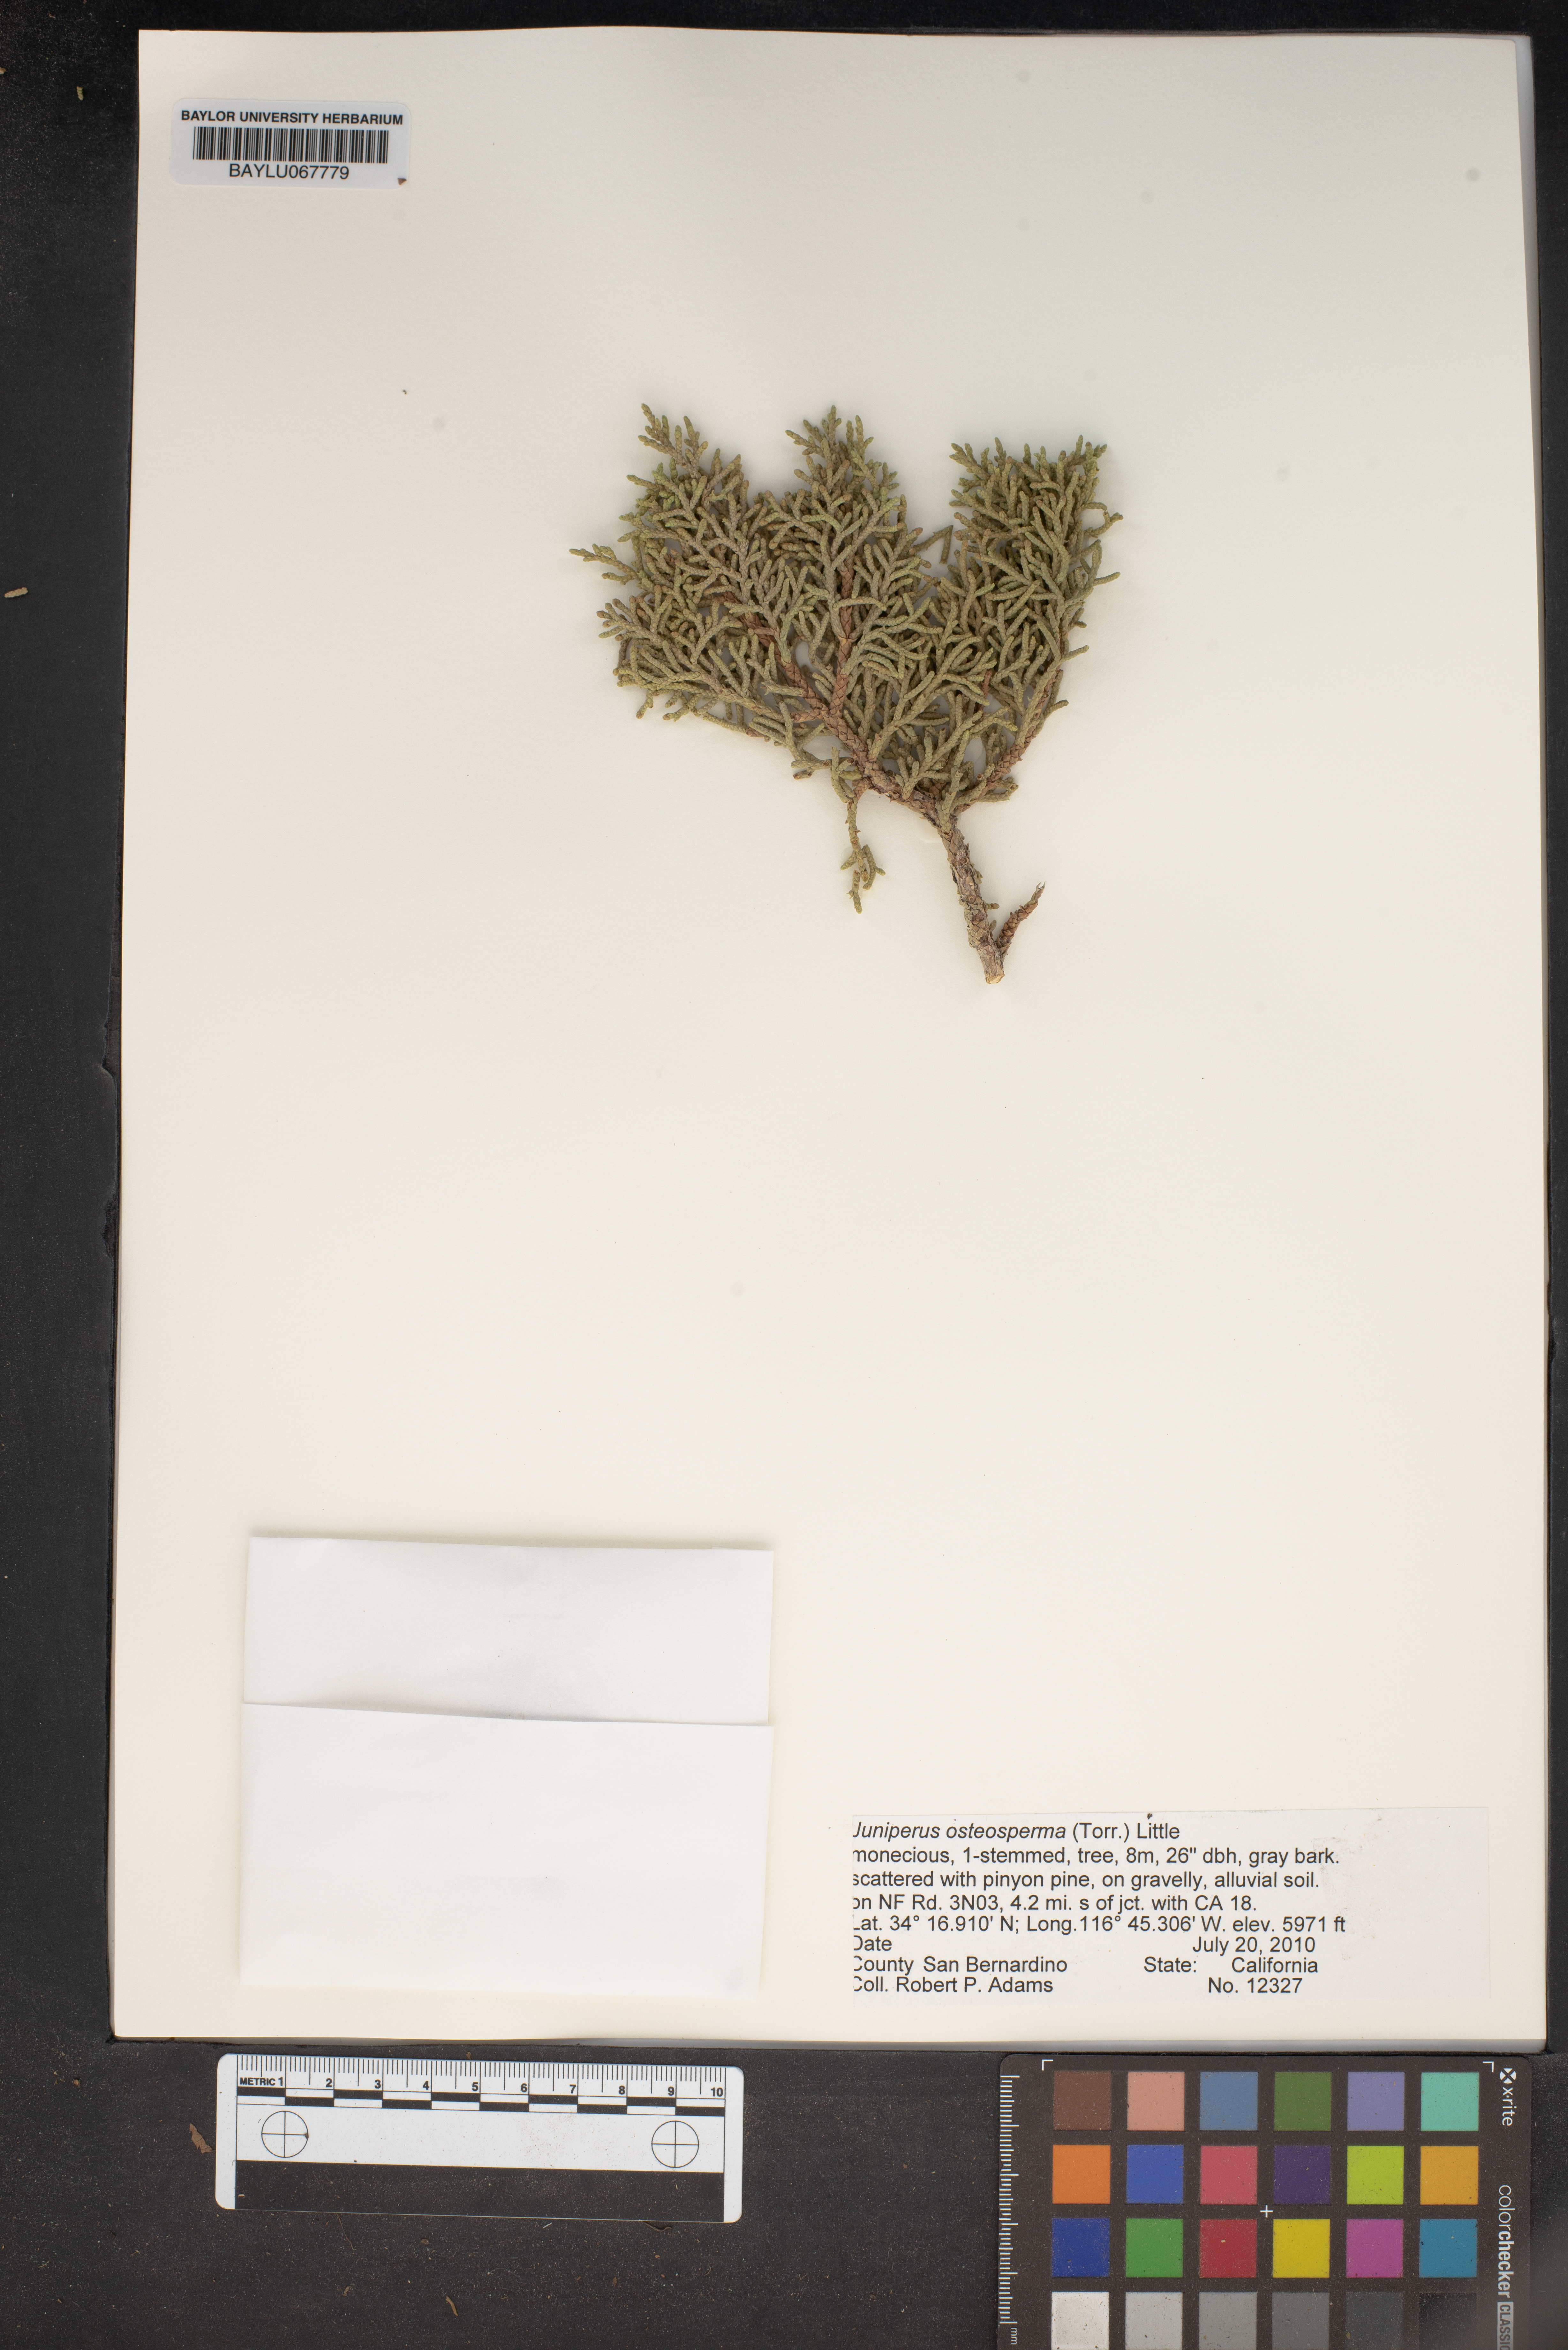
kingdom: Plantae
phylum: Tracheophyta
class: Pinopsida
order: Pinales
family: Cupressaceae
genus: Juniperus
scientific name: Juniperus osteosperma
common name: Utah juniper
